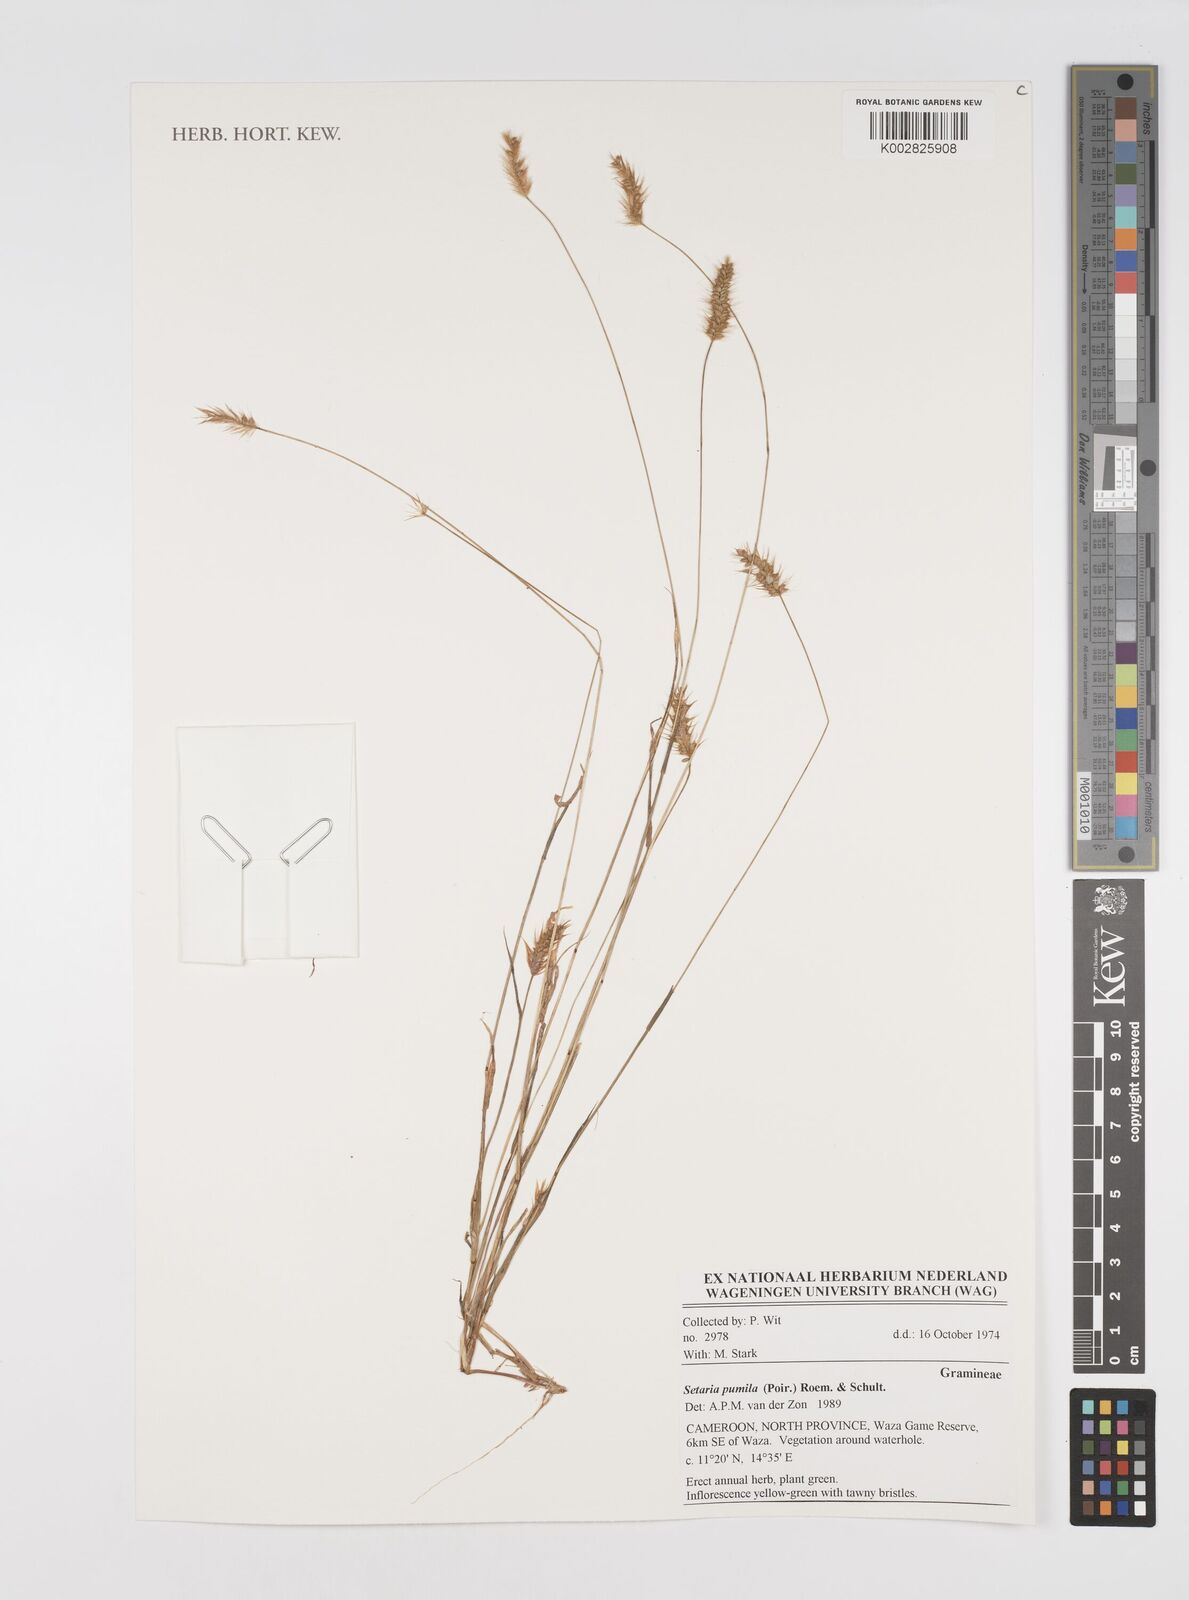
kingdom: Plantae
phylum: Tracheophyta
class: Liliopsida
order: Poales
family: Poaceae
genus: Setaria
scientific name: Setaria pumila
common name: Yellow bristle-grass
